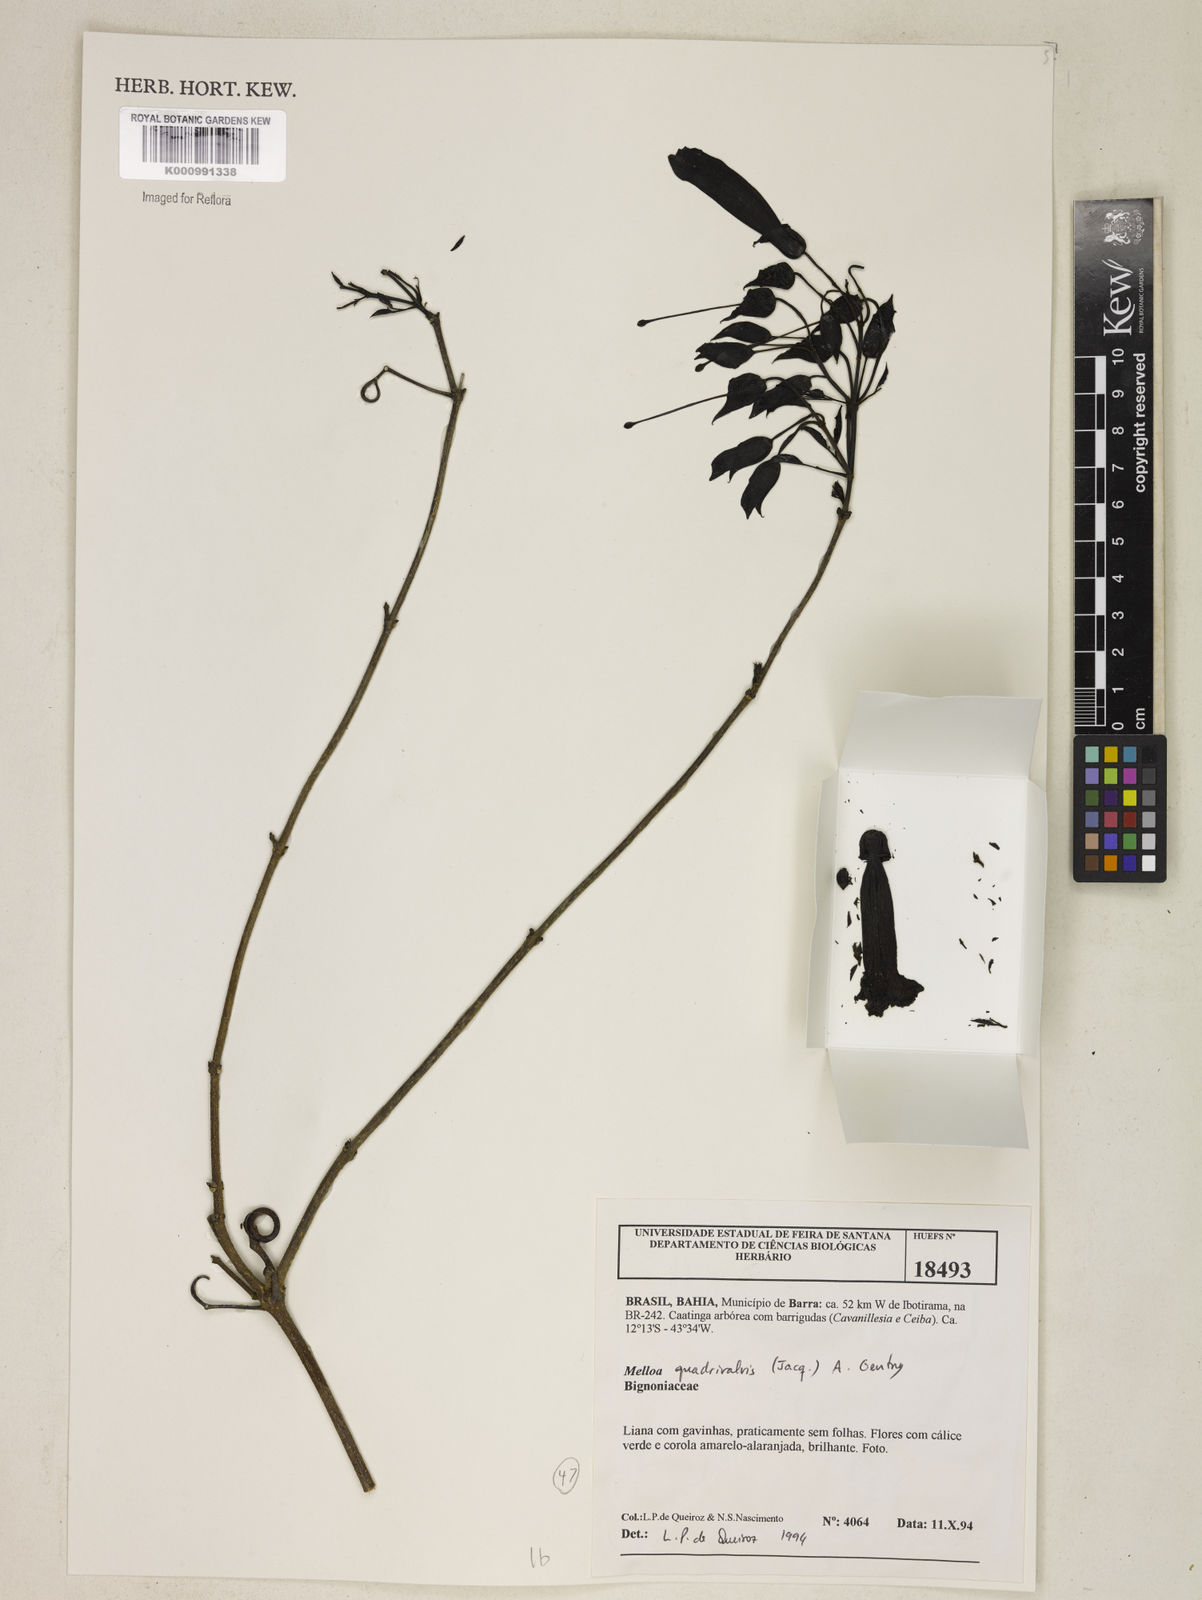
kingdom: Plantae
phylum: Tracheophyta
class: Magnoliopsida
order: Lamiales
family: Bignoniaceae
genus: Dolichandra
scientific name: Dolichandra quadrivalvis
